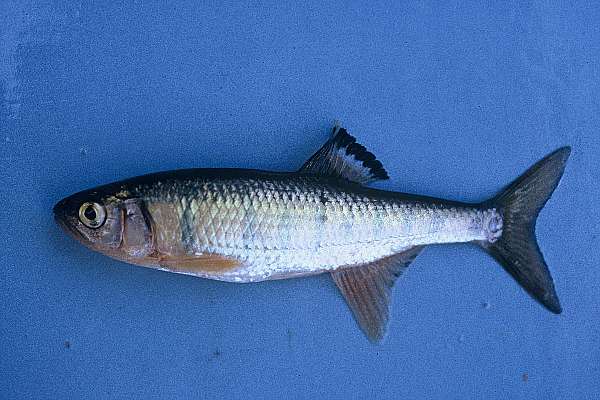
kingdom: Animalia
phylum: Chordata
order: Cypriniformes
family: Cyprinidae
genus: Opsaridium
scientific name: Opsaridium tweddleorum
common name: Dwarf sanjika
